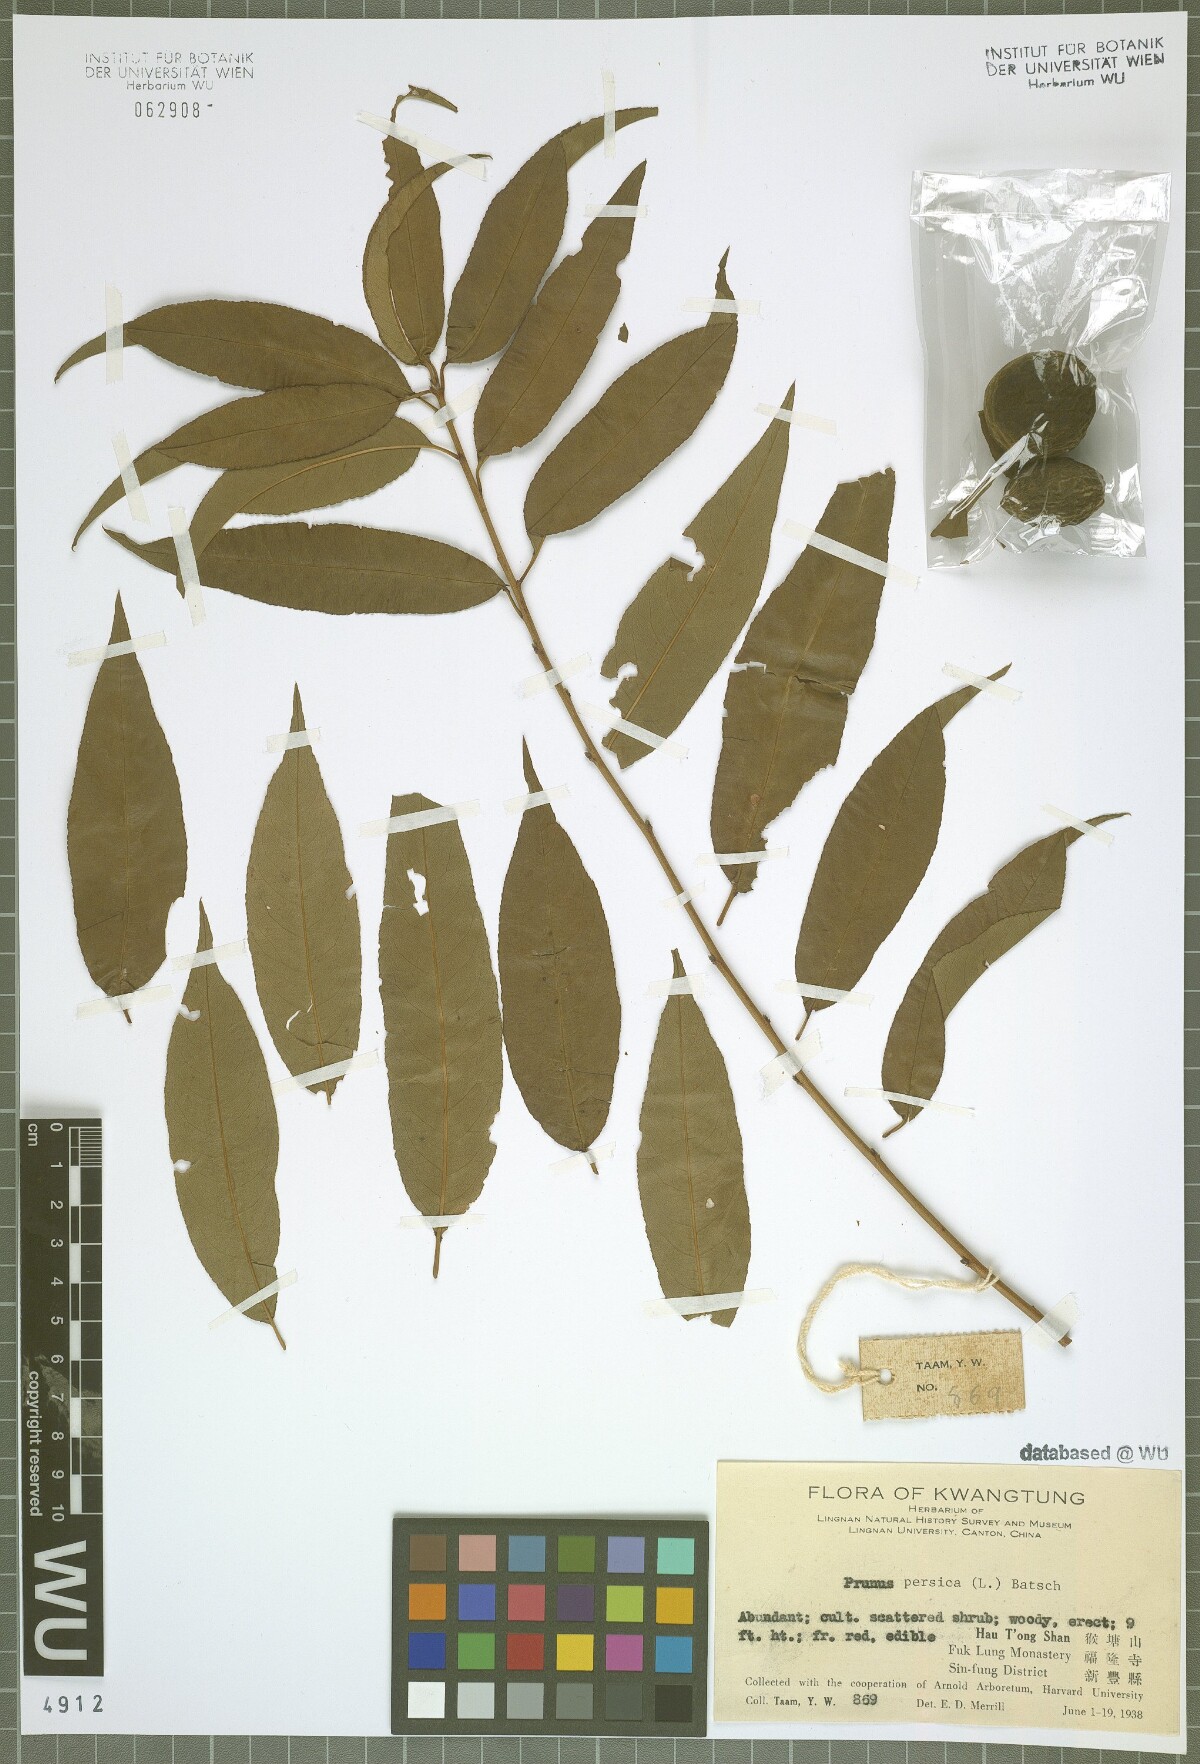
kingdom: Plantae
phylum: Tracheophyta
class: Magnoliopsida
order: Rosales
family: Rosaceae
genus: Prunus
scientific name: Prunus persica
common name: Peach
